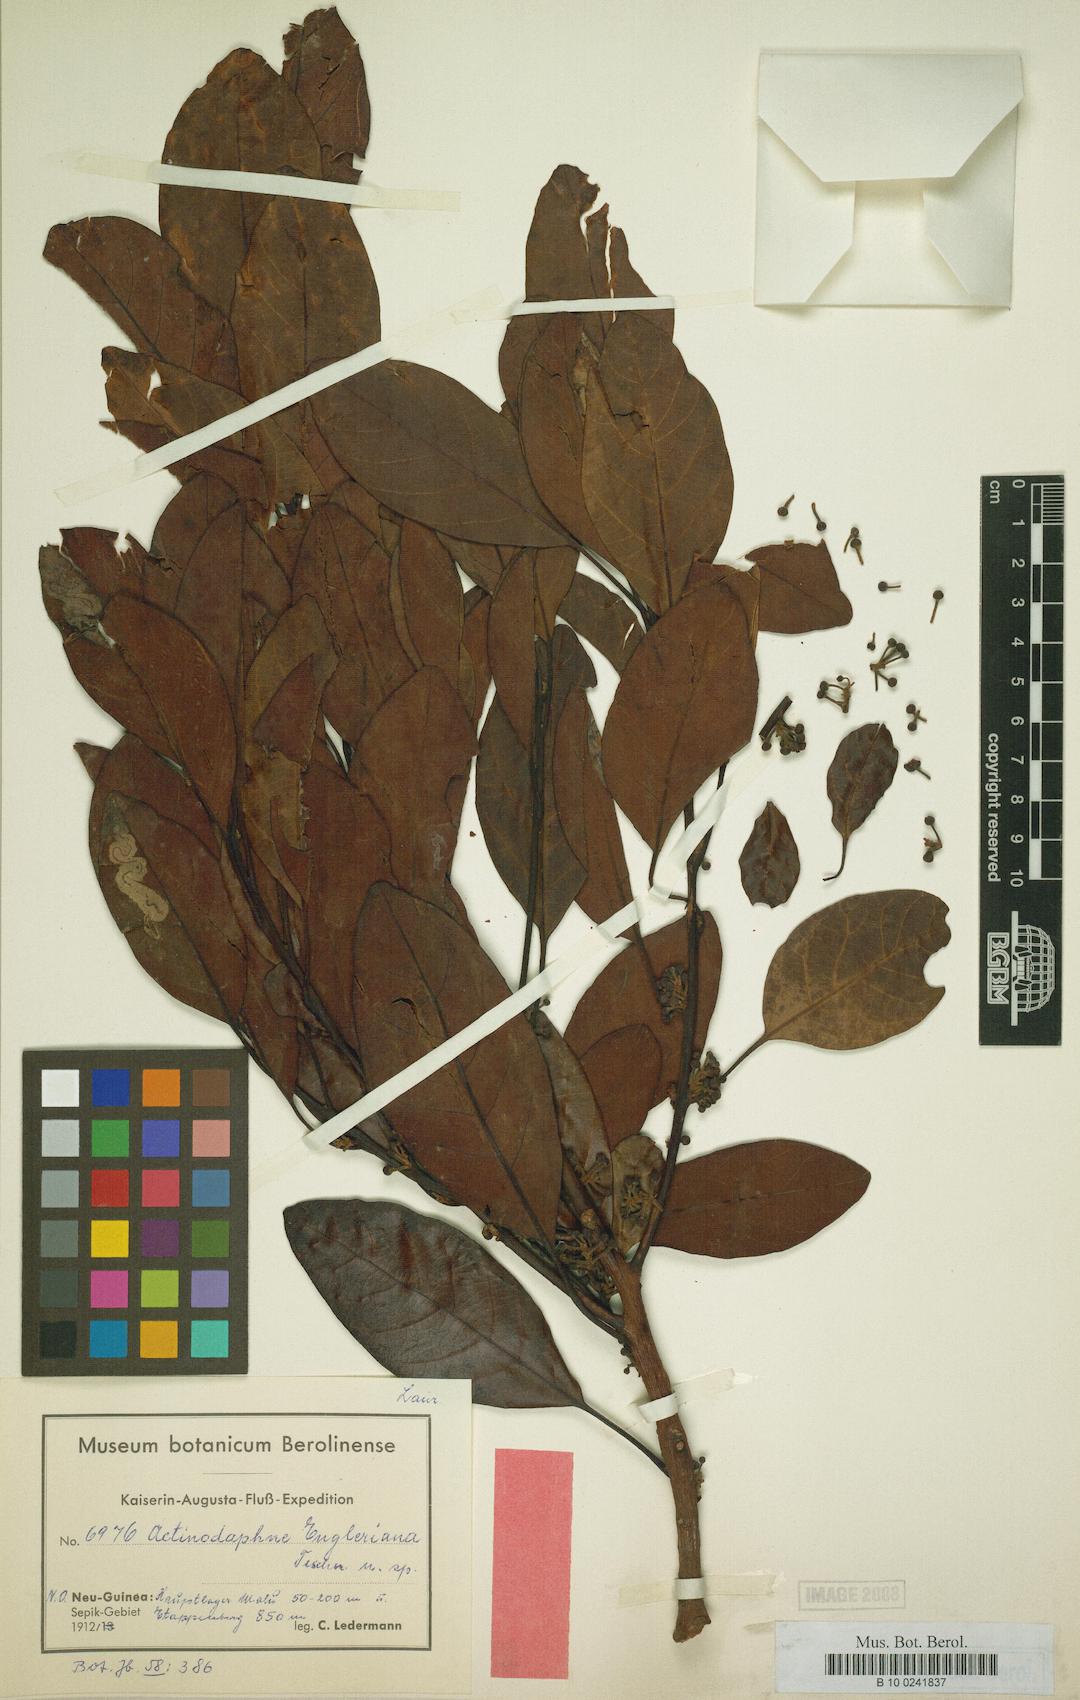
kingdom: Plantae
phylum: Tracheophyta
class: Magnoliopsida
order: Laurales
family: Lauraceae
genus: Actinodaphne
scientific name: Actinodaphne engleriana
